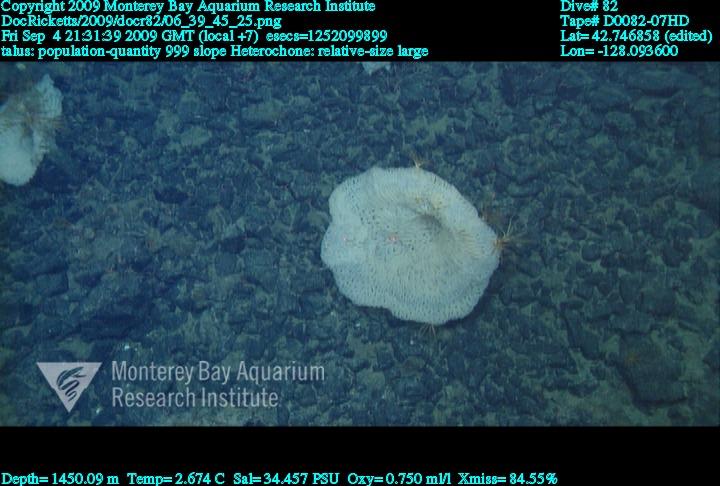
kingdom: Animalia
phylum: Porifera
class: Hexactinellida
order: Sceptrulophora
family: Aphrocallistidae
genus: Heterochone
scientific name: Heterochone
